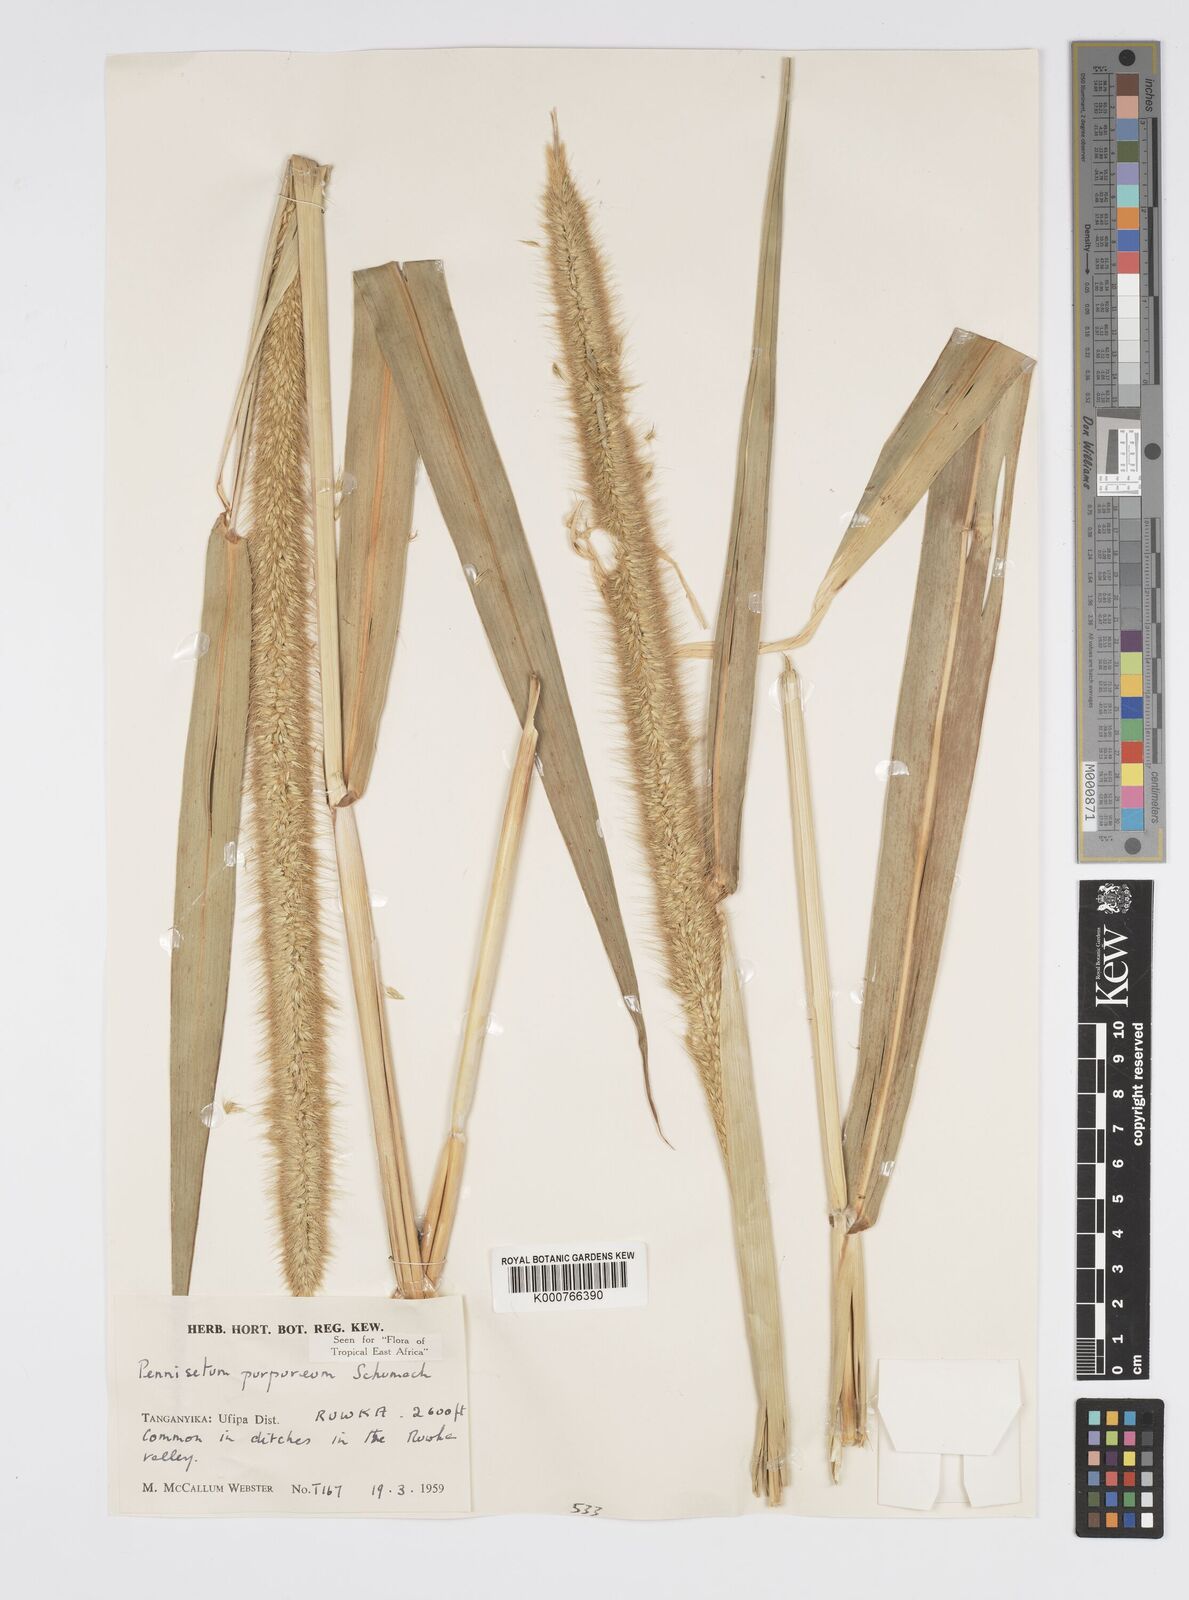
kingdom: Plantae
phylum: Tracheophyta
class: Liliopsida
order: Poales
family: Poaceae
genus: Cenchrus
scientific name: Cenchrus purpureus
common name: Elephant grass
